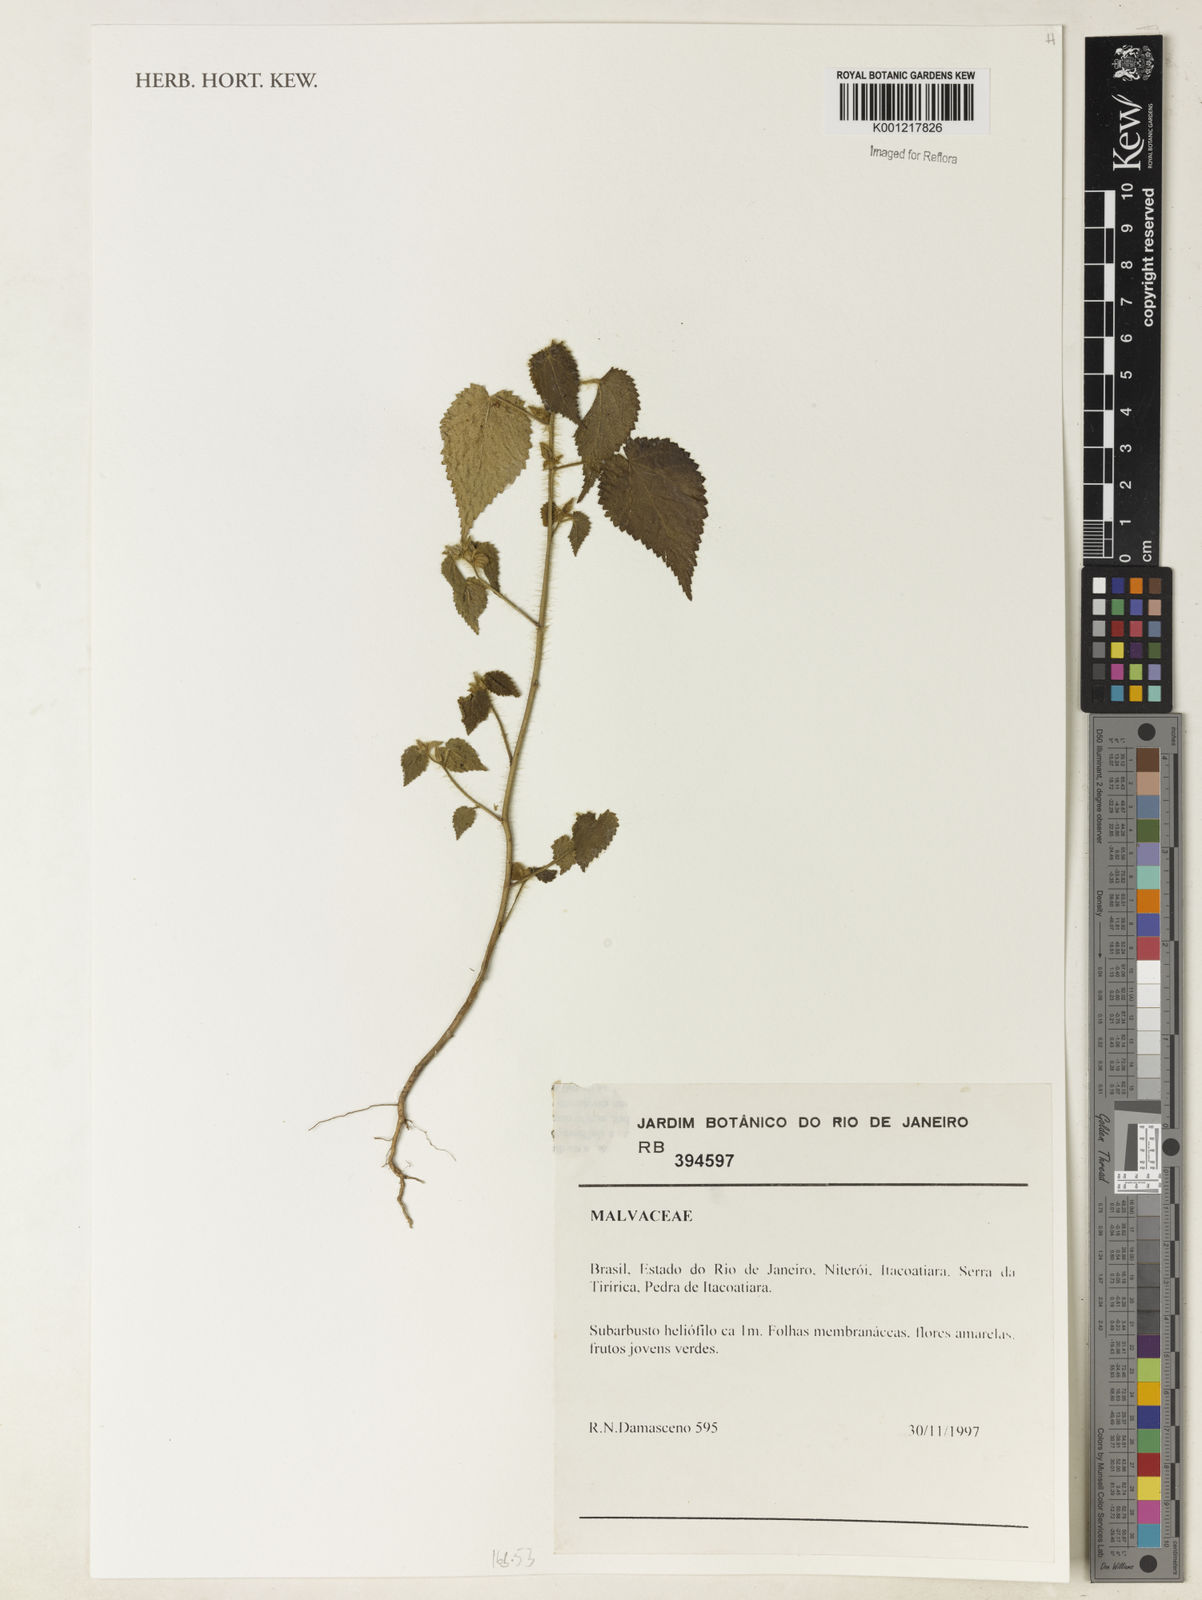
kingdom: Plantae
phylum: Tracheophyta
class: Magnoliopsida
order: Malvales
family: Malvaceae
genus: Pavonia
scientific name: Pavonia
